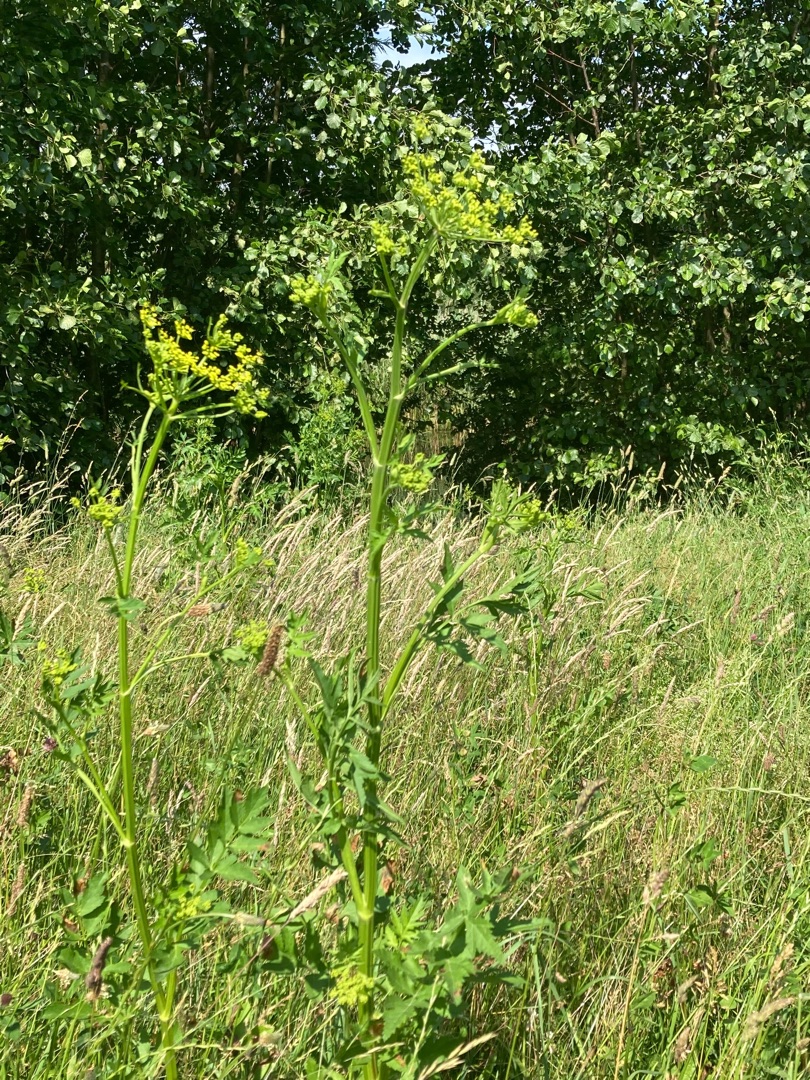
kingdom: Plantae
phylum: Tracheophyta
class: Magnoliopsida
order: Apiales
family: Apiaceae
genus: Pastinaca
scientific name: Pastinaca sativa
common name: Pastinak
